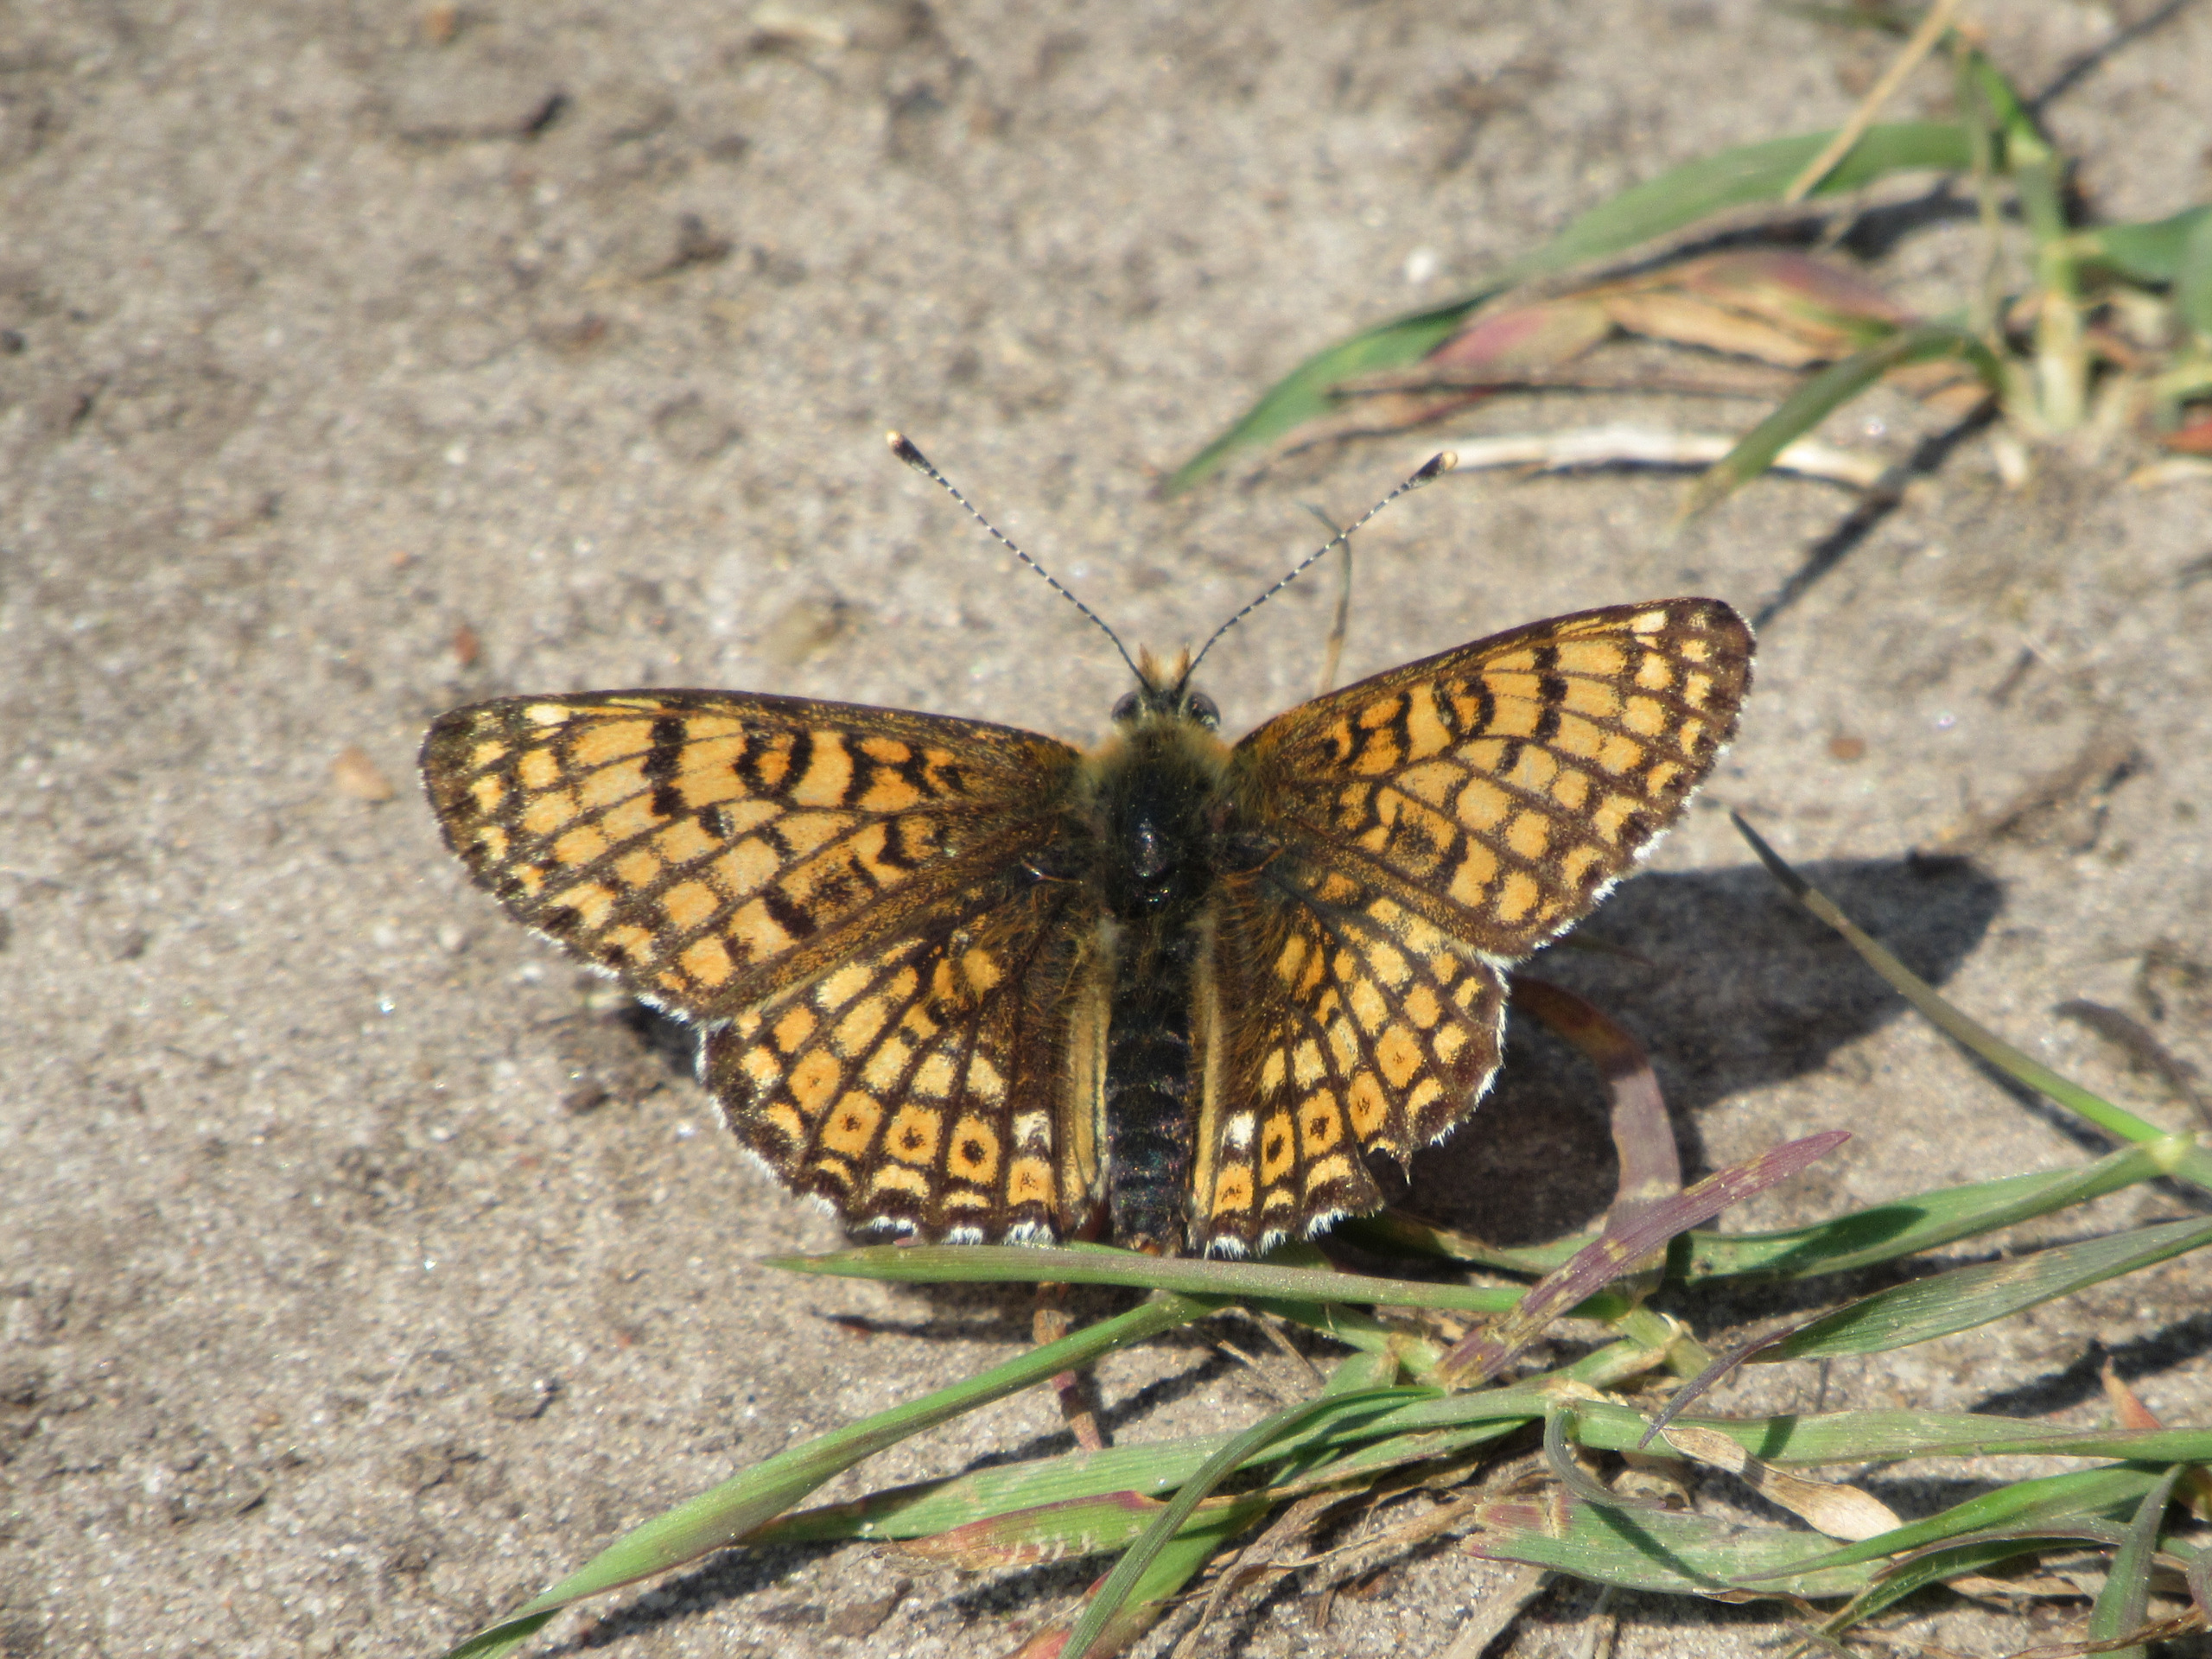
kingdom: Animalia
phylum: Arthropoda
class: Insecta
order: Lepidoptera
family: Nymphalidae
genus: Melitaea
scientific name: Melitaea cinxia
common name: Okkergul pletvinge
